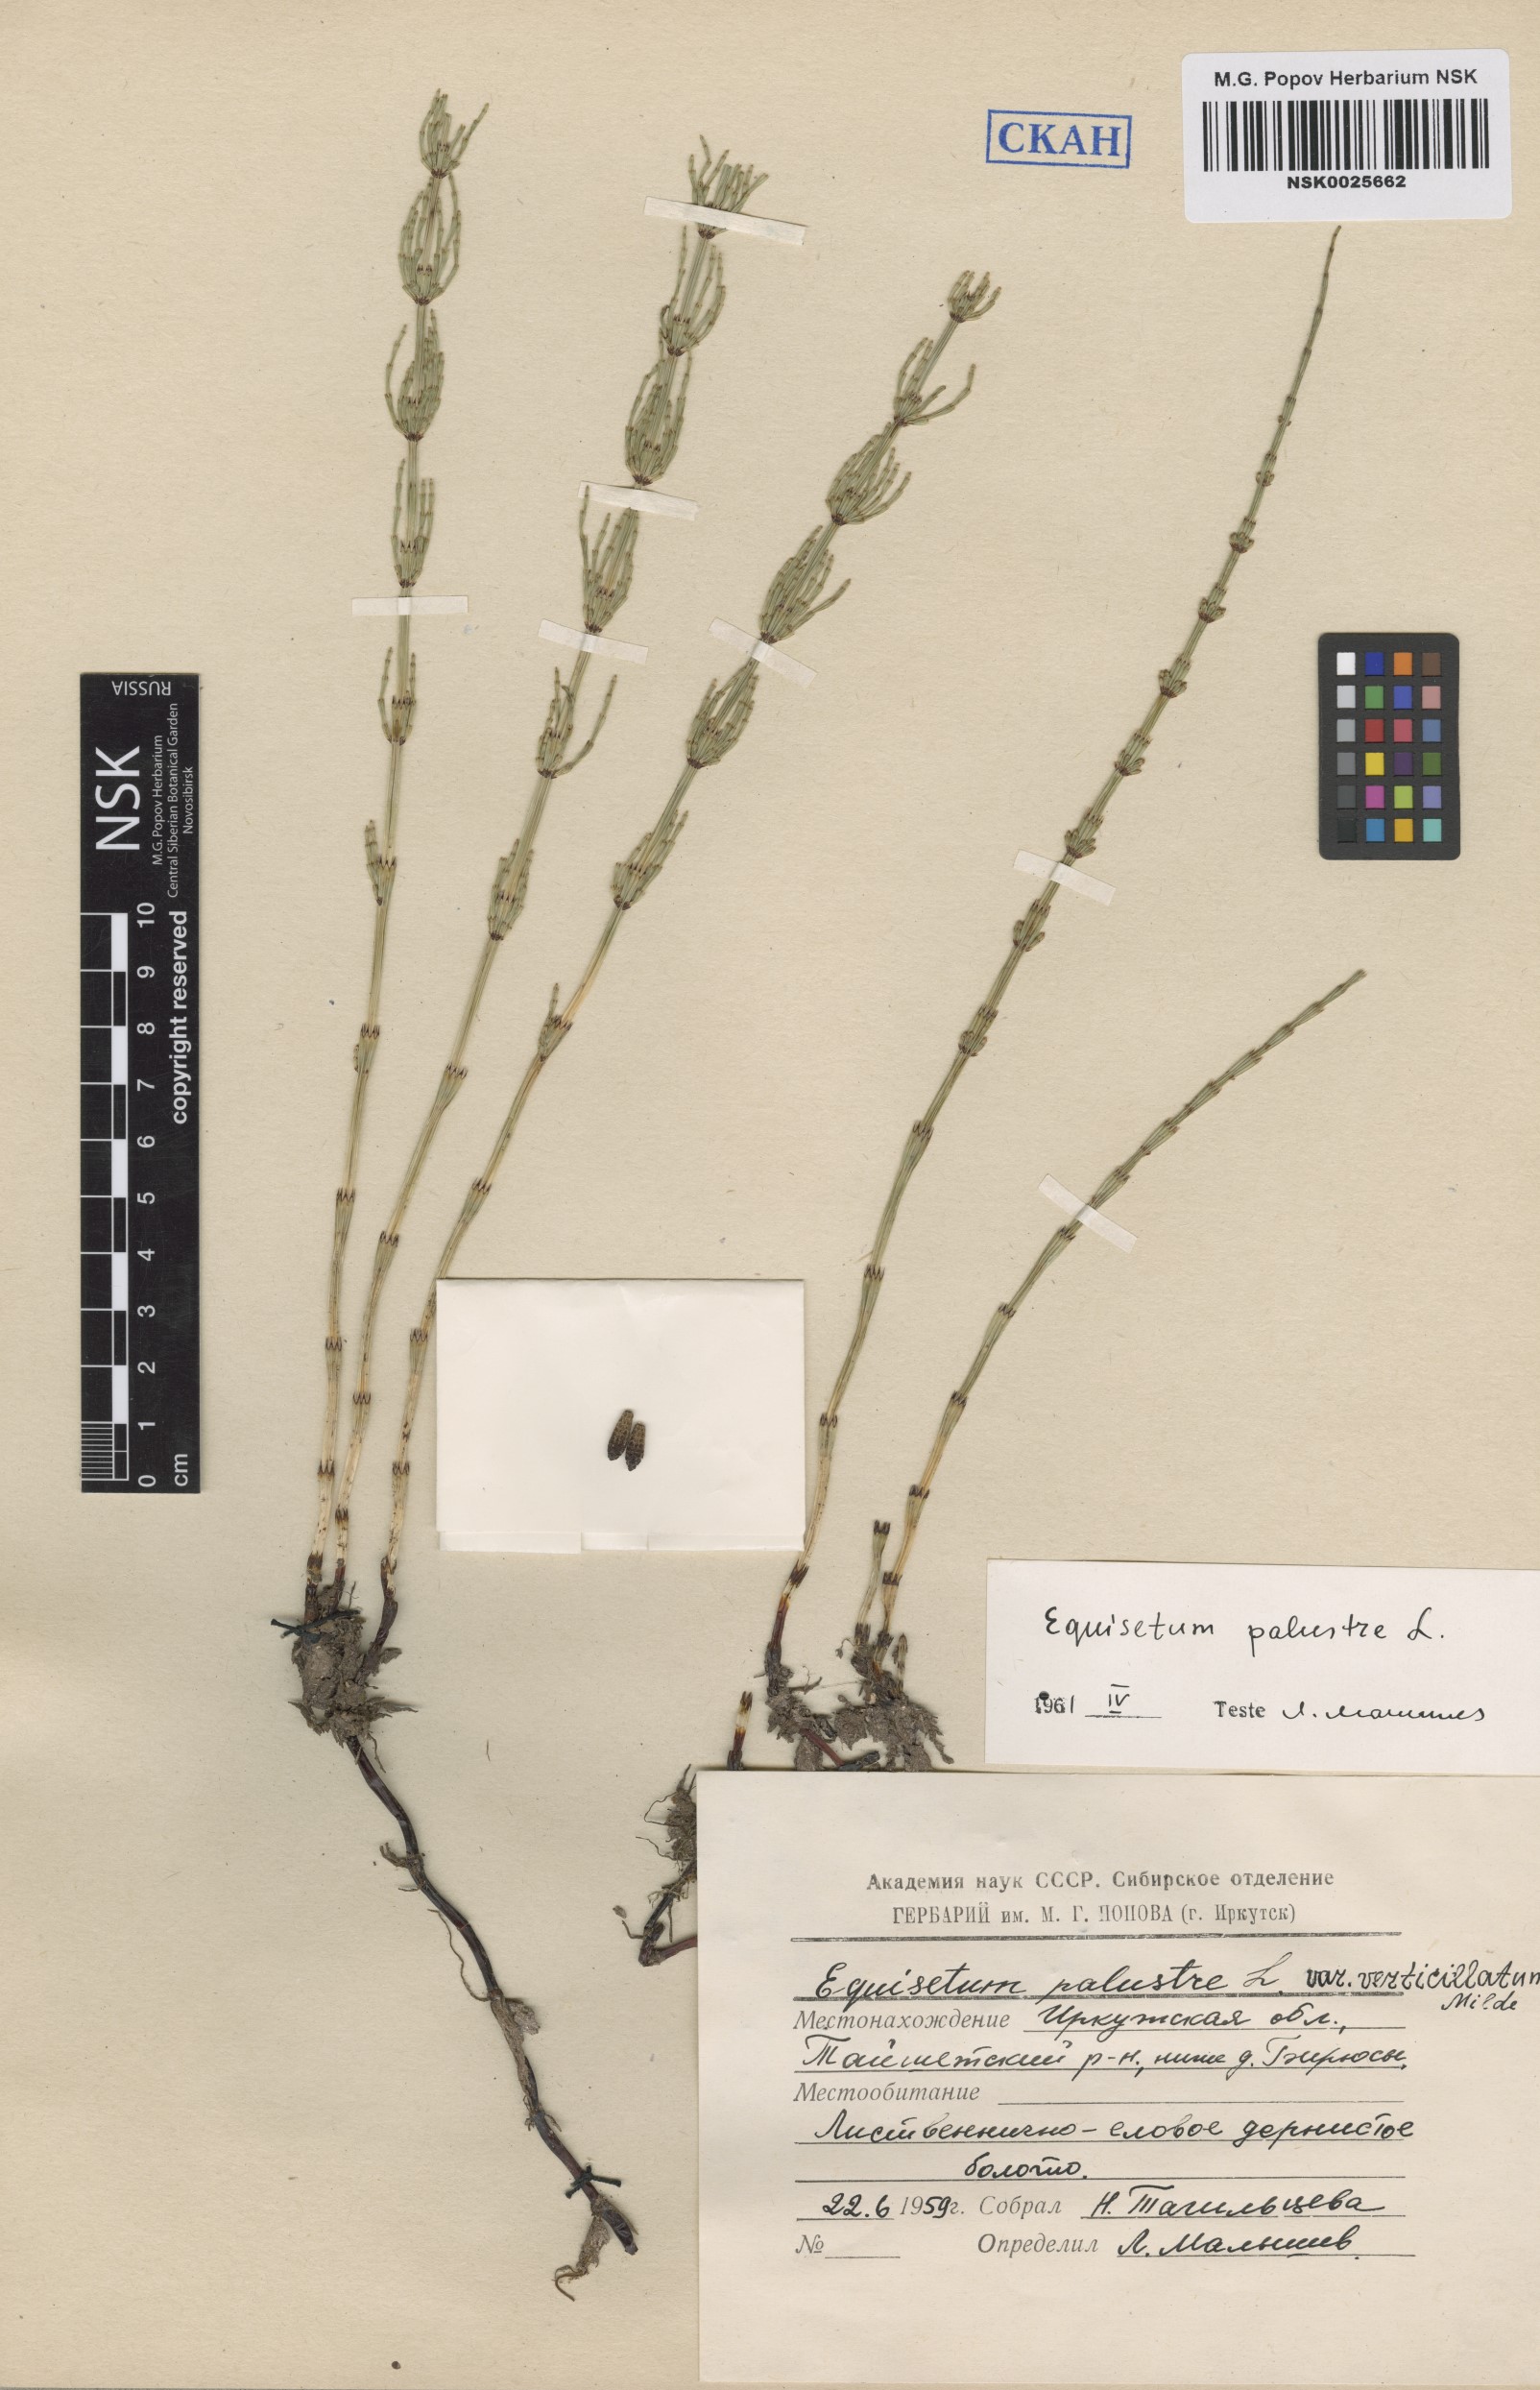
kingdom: Plantae
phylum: Tracheophyta
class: Polypodiopsida
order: Equisetales
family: Equisetaceae
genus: Equisetum
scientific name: Equisetum palustre
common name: Marsh horsetail
